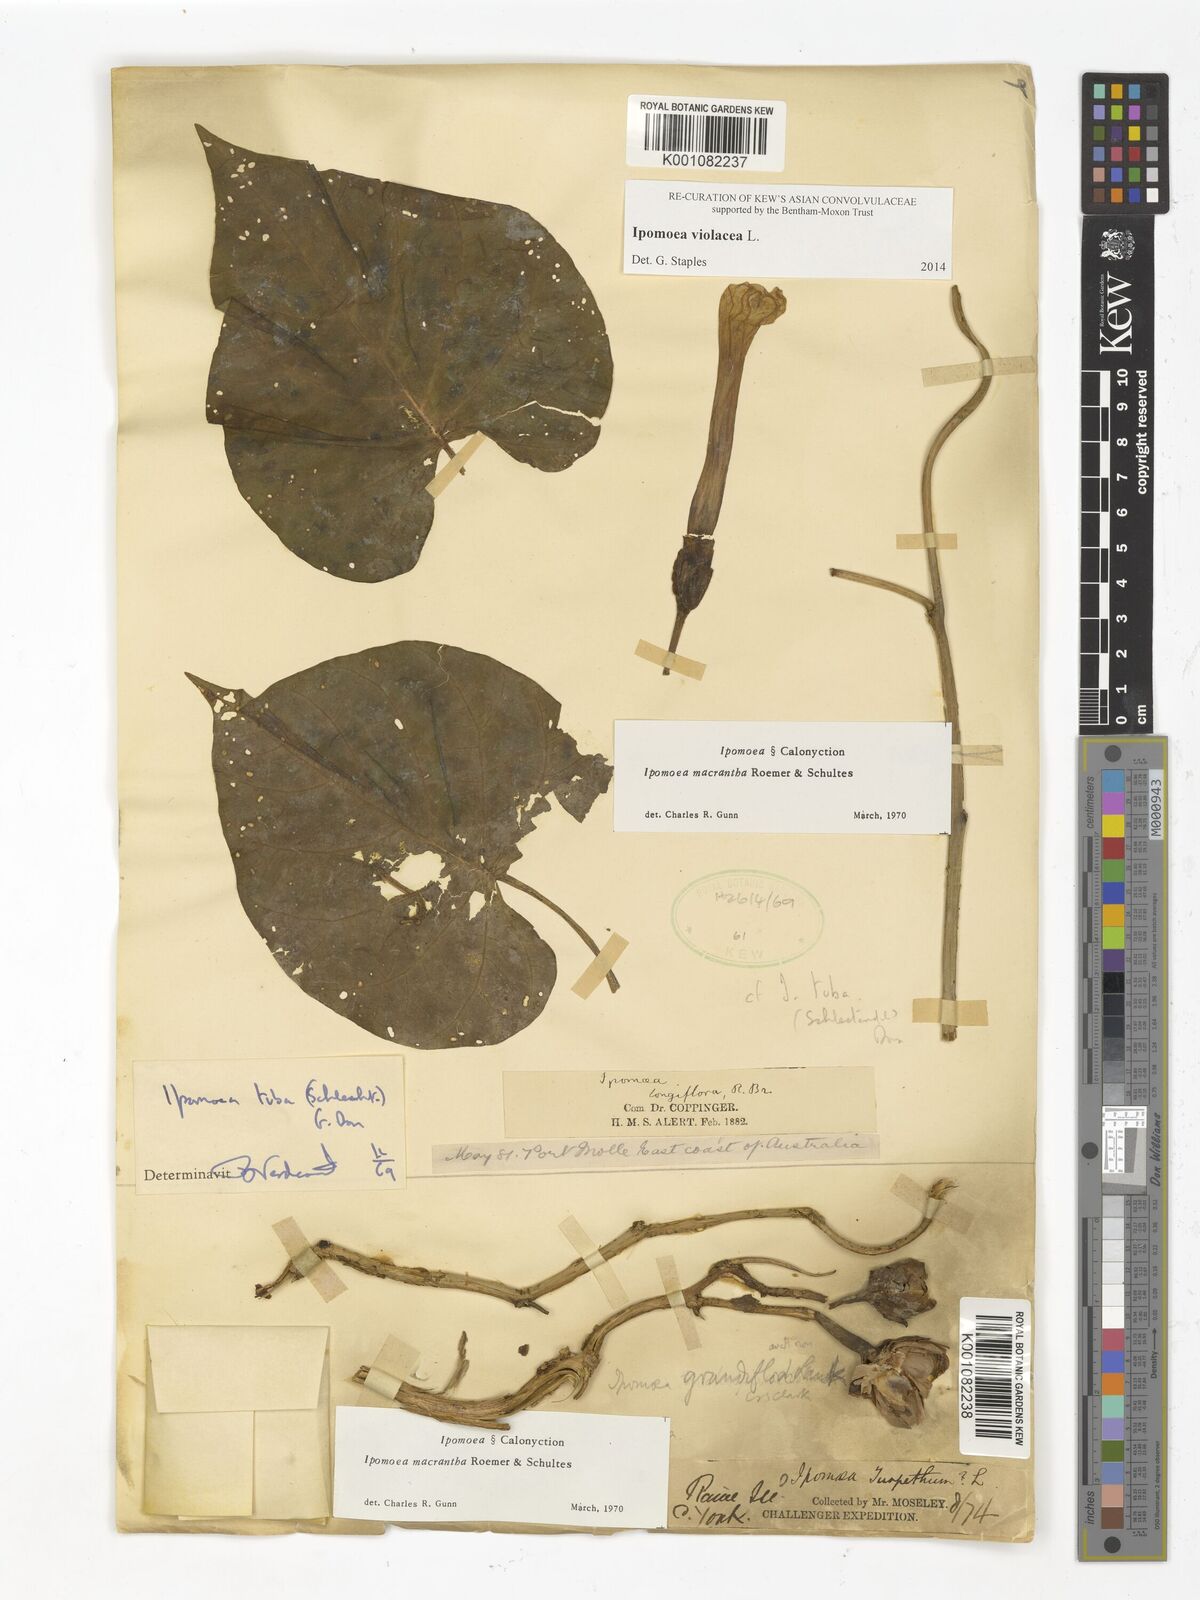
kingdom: Plantae
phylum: Tracheophyta
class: Magnoliopsida
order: Solanales
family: Convolvulaceae
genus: Ipomoea
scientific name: Ipomoea violacea
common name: Beach moonflower
